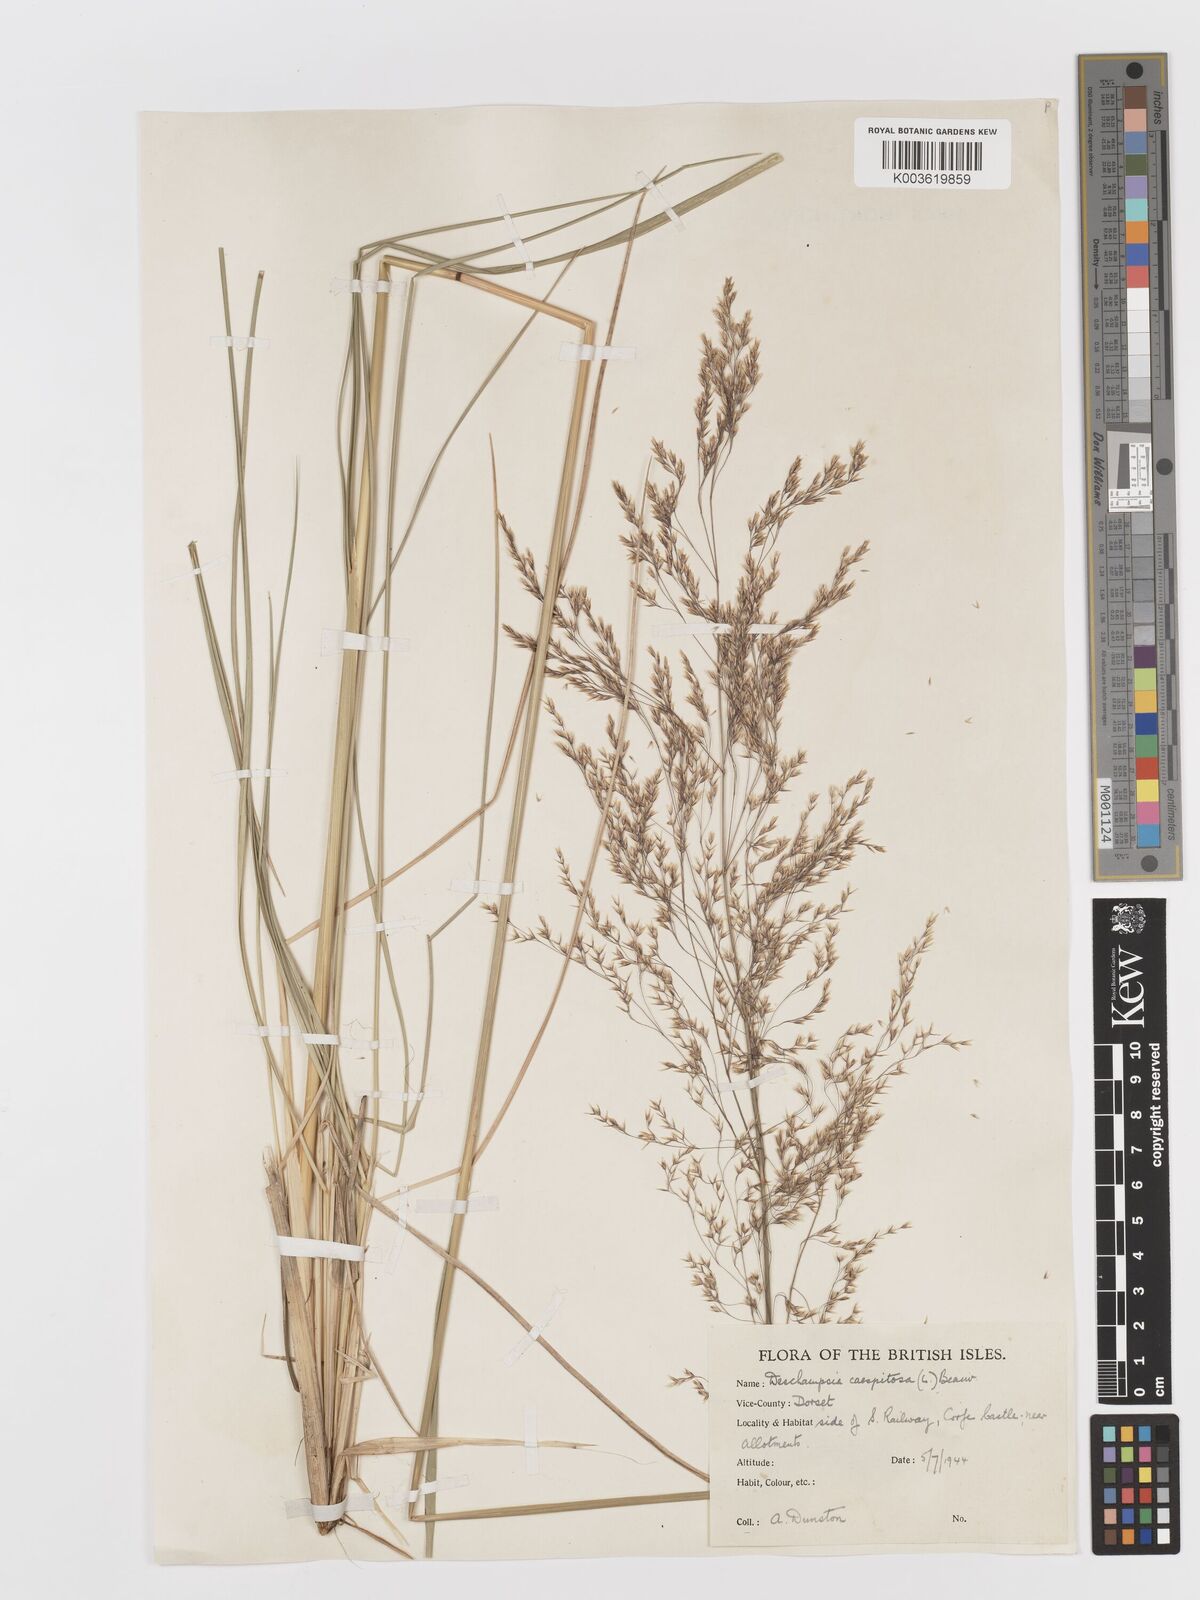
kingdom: Plantae
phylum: Tracheophyta
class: Liliopsida
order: Poales
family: Poaceae
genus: Deschampsia
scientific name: Deschampsia cespitosa
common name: Tufted hair-grass
